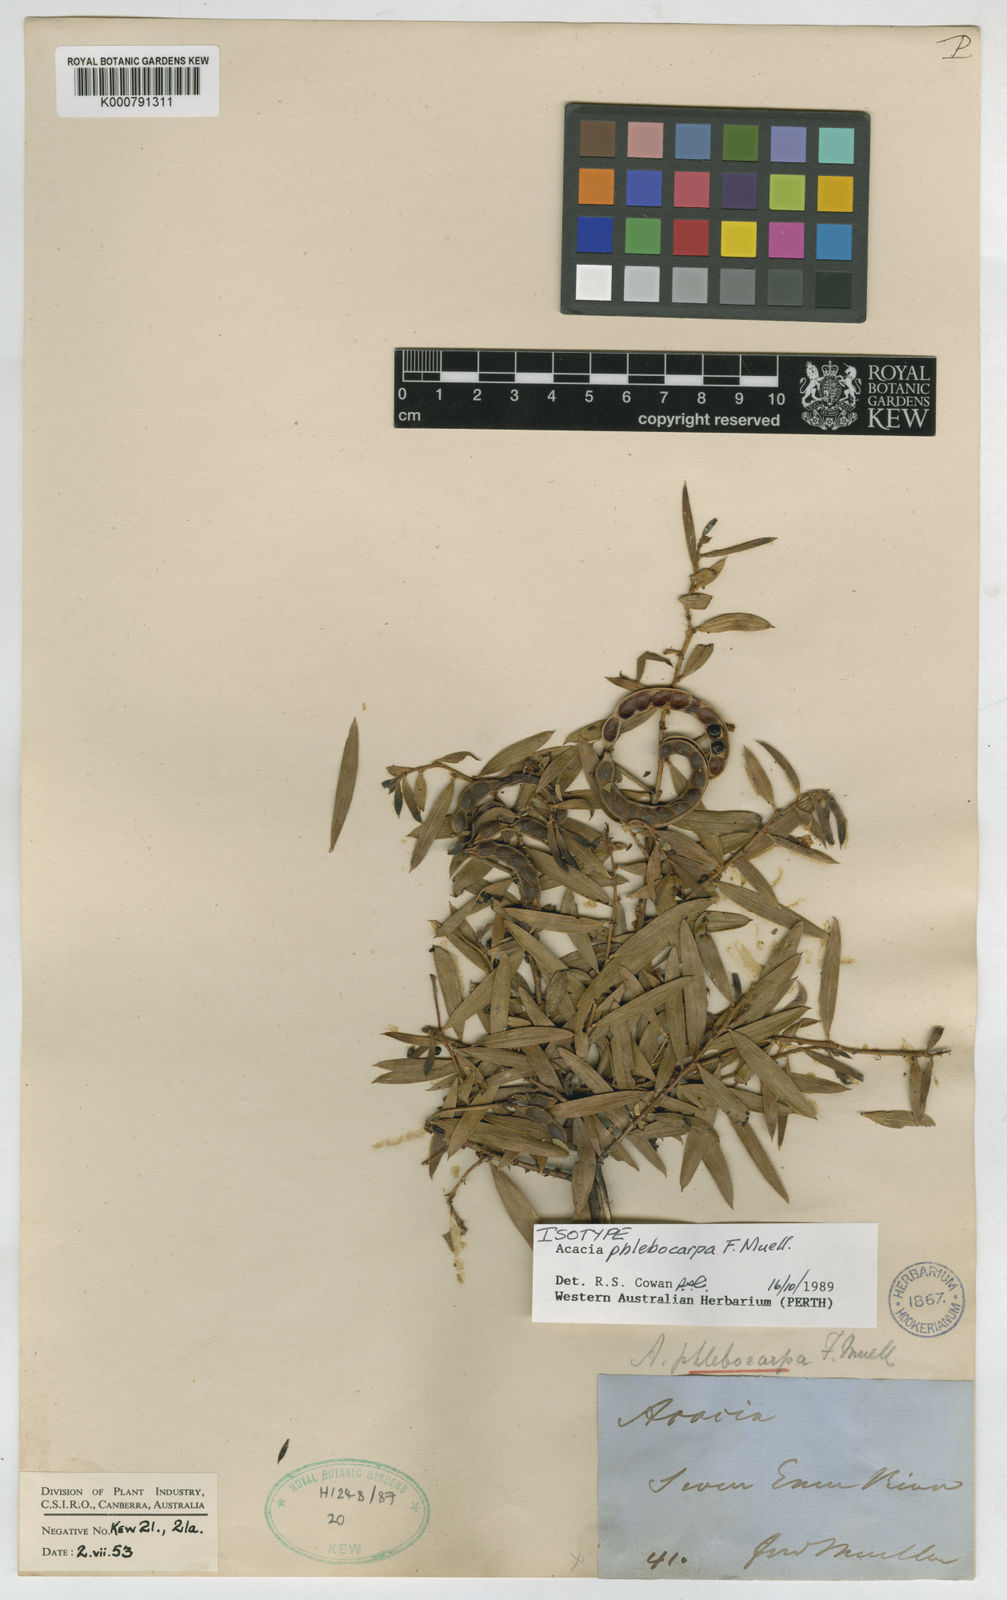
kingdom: Plantae
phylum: Tracheophyta
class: Magnoliopsida
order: Fabales
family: Fabaceae
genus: Acacia
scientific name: Acacia phlebocarpa
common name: Table-top wattle
